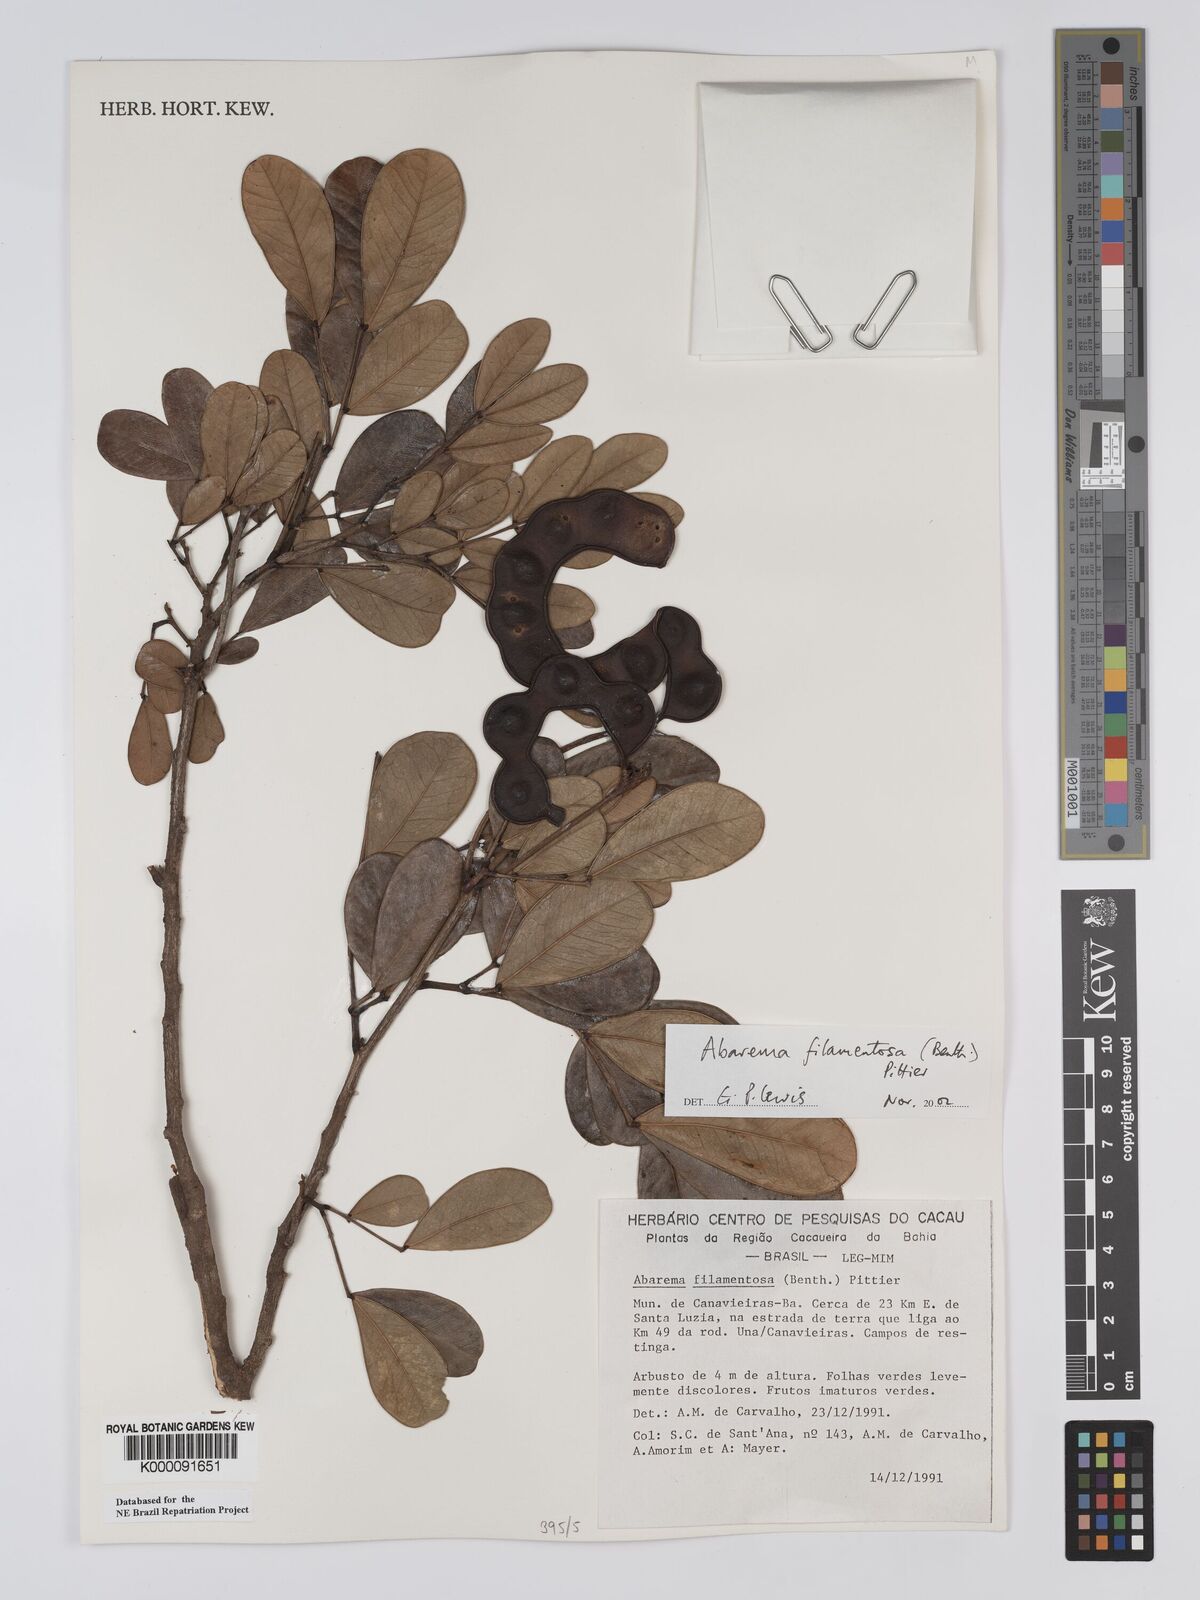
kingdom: Plantae
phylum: Tracheophyta
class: Magnoliopsida
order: Fabales
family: Fabaceae
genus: Jupunba
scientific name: Jupunba filamentosa
